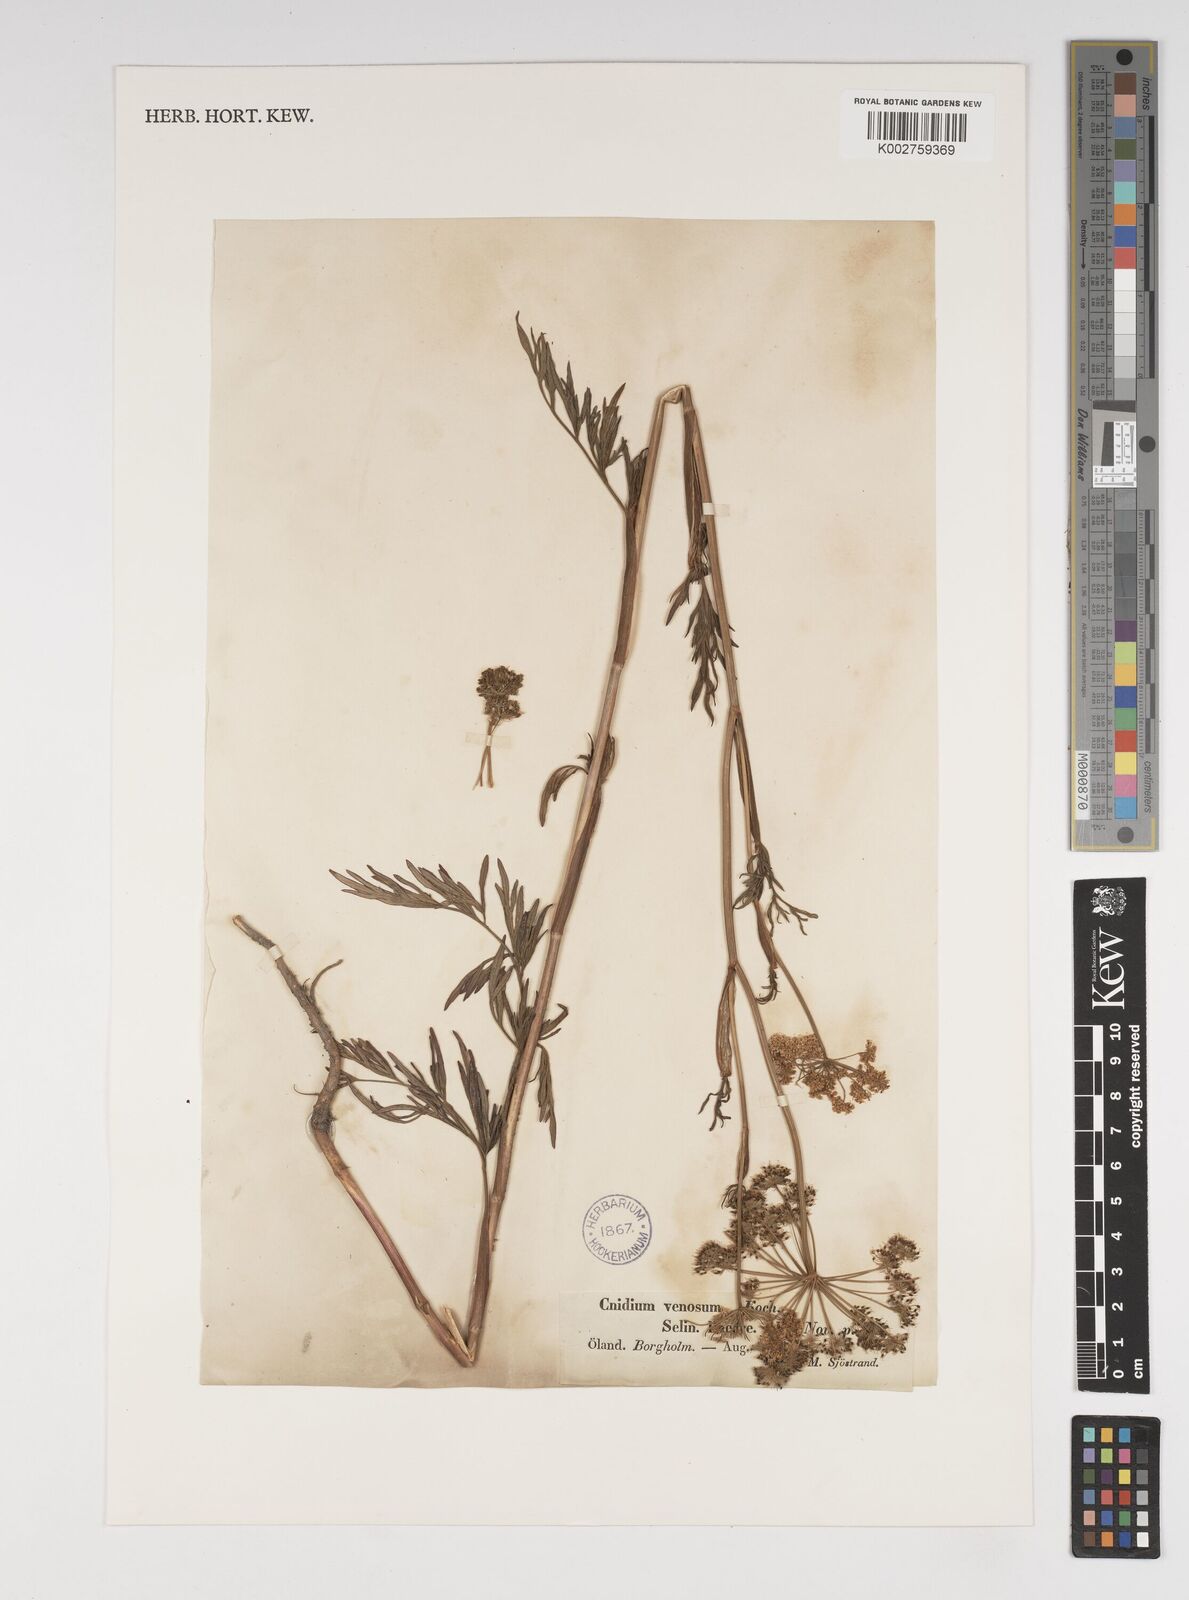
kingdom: Plantae
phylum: Tracheophyta
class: Magnoliopsida
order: Apiales
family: Apiaceae
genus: Kadenia
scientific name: Kadenia dubia
